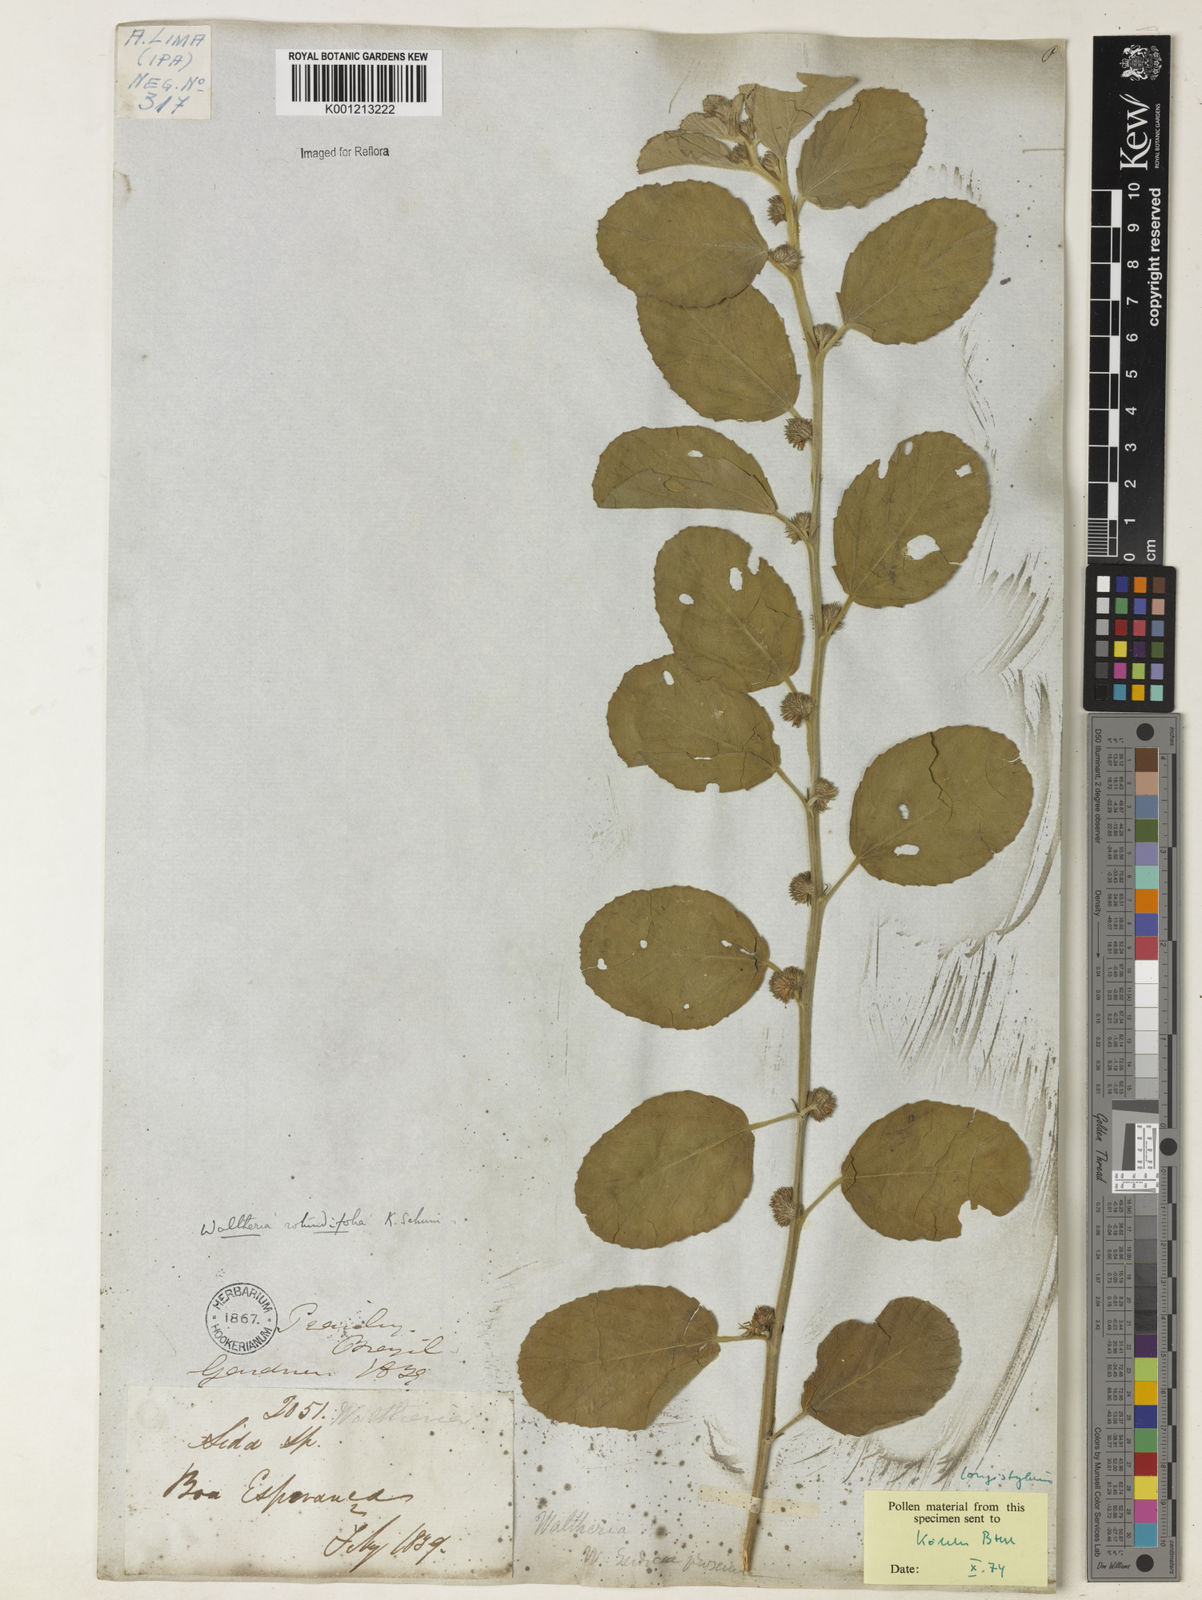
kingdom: Plantae
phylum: Tracheophyta
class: Magnoliopsida
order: Malvales
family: Malvaceae
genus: Waltheria
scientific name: Waltheria rotundifolia
